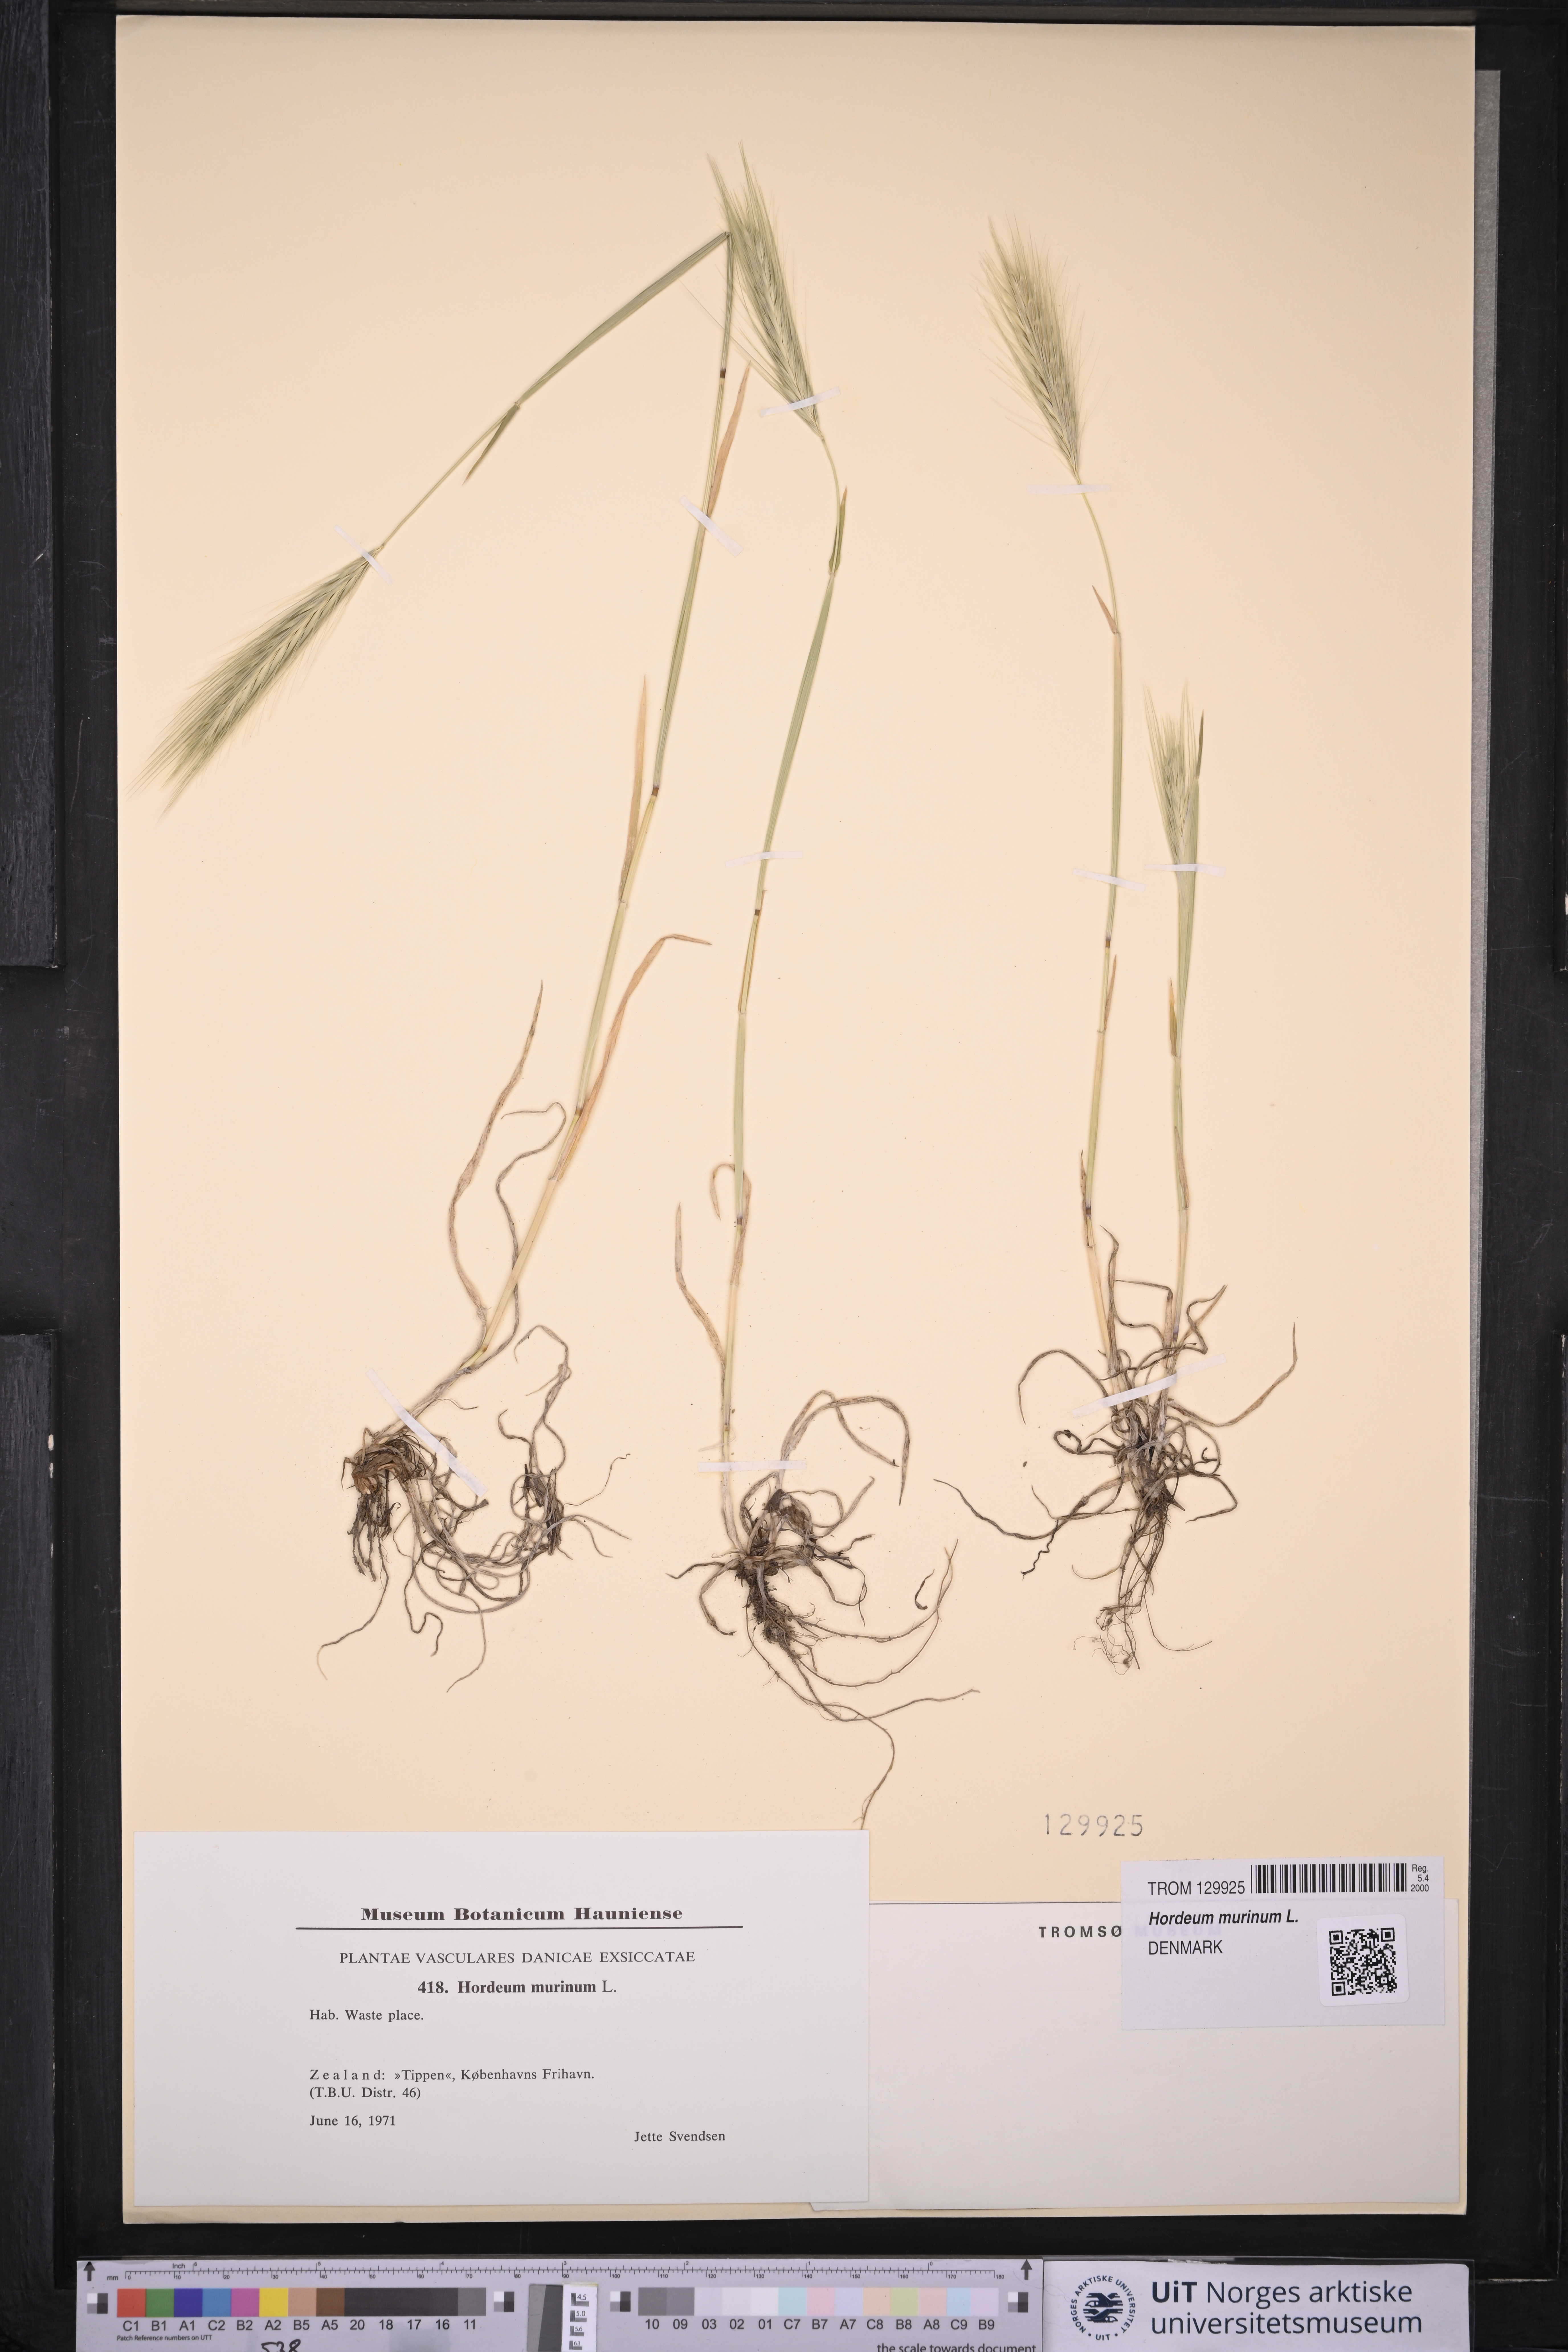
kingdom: Plantae
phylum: Tracheophyta
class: Liliopsida
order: Poales
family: Poaceae
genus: Hordeum
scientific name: Hordeum murinum
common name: Wall barley
